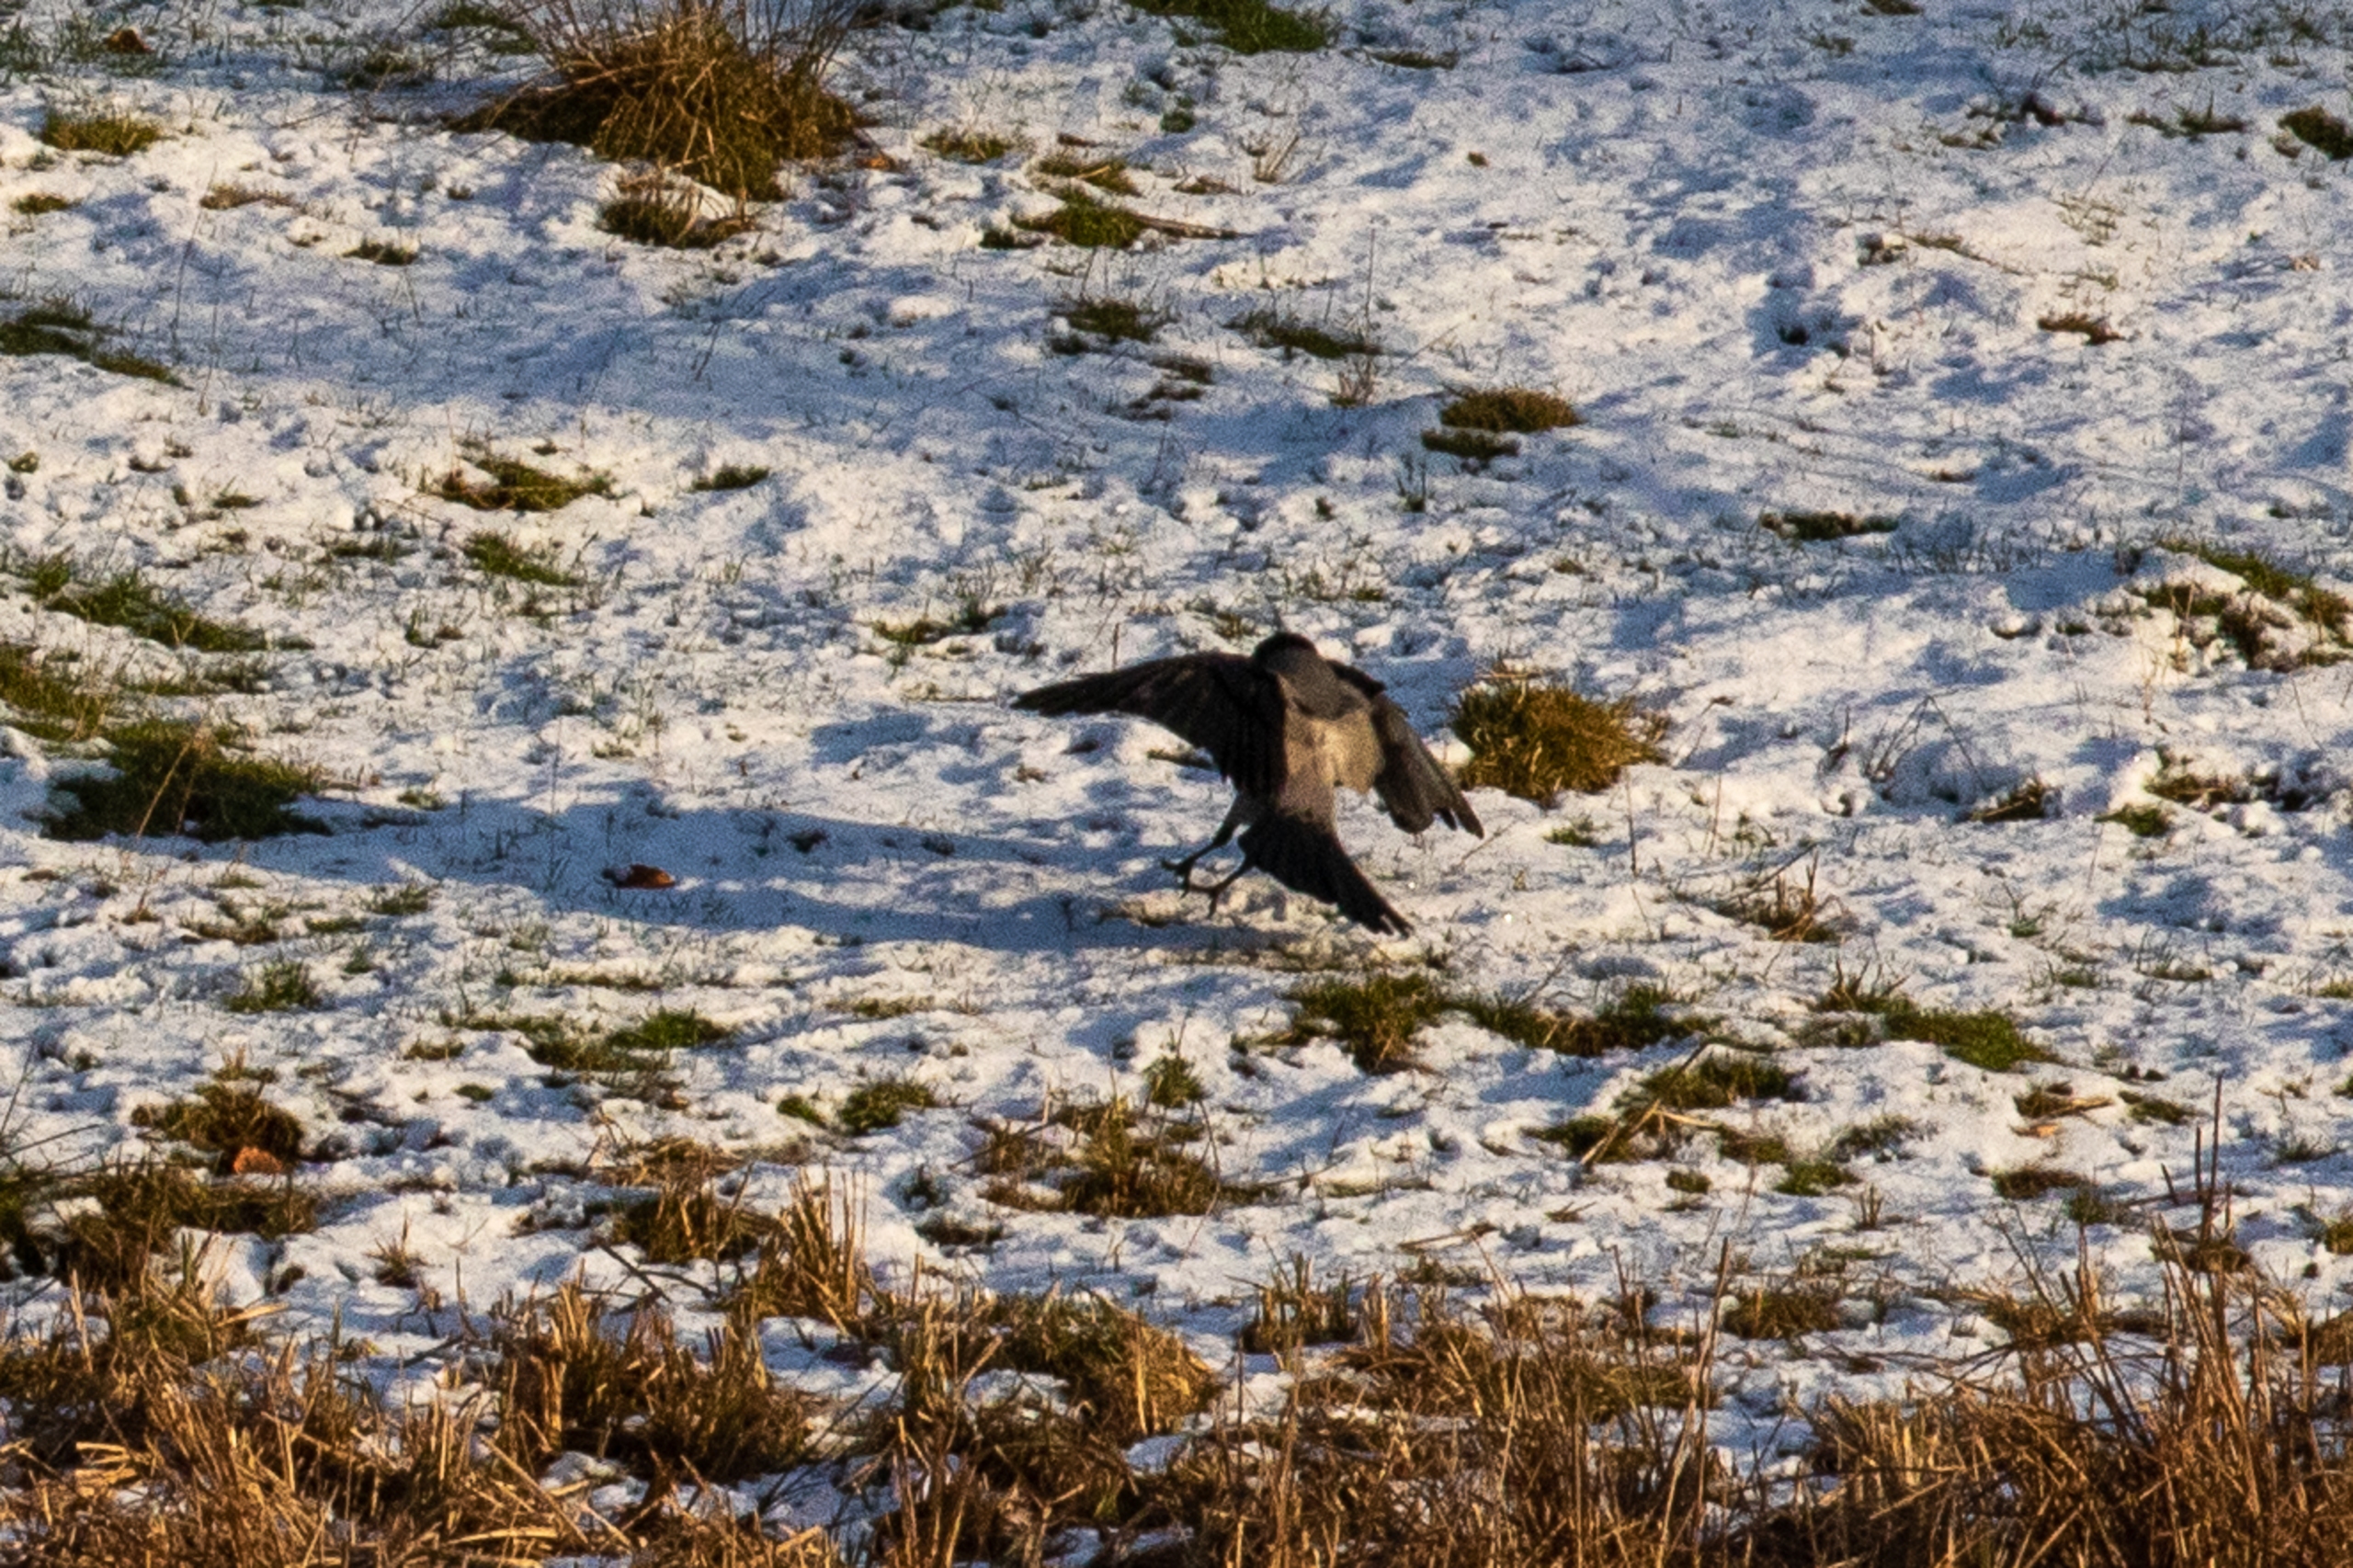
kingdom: Animalia
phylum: Chordata
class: Aves
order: Passeriformes
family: Corvidae
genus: Corvus
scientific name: Corvus cornix
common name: Gråkrage
